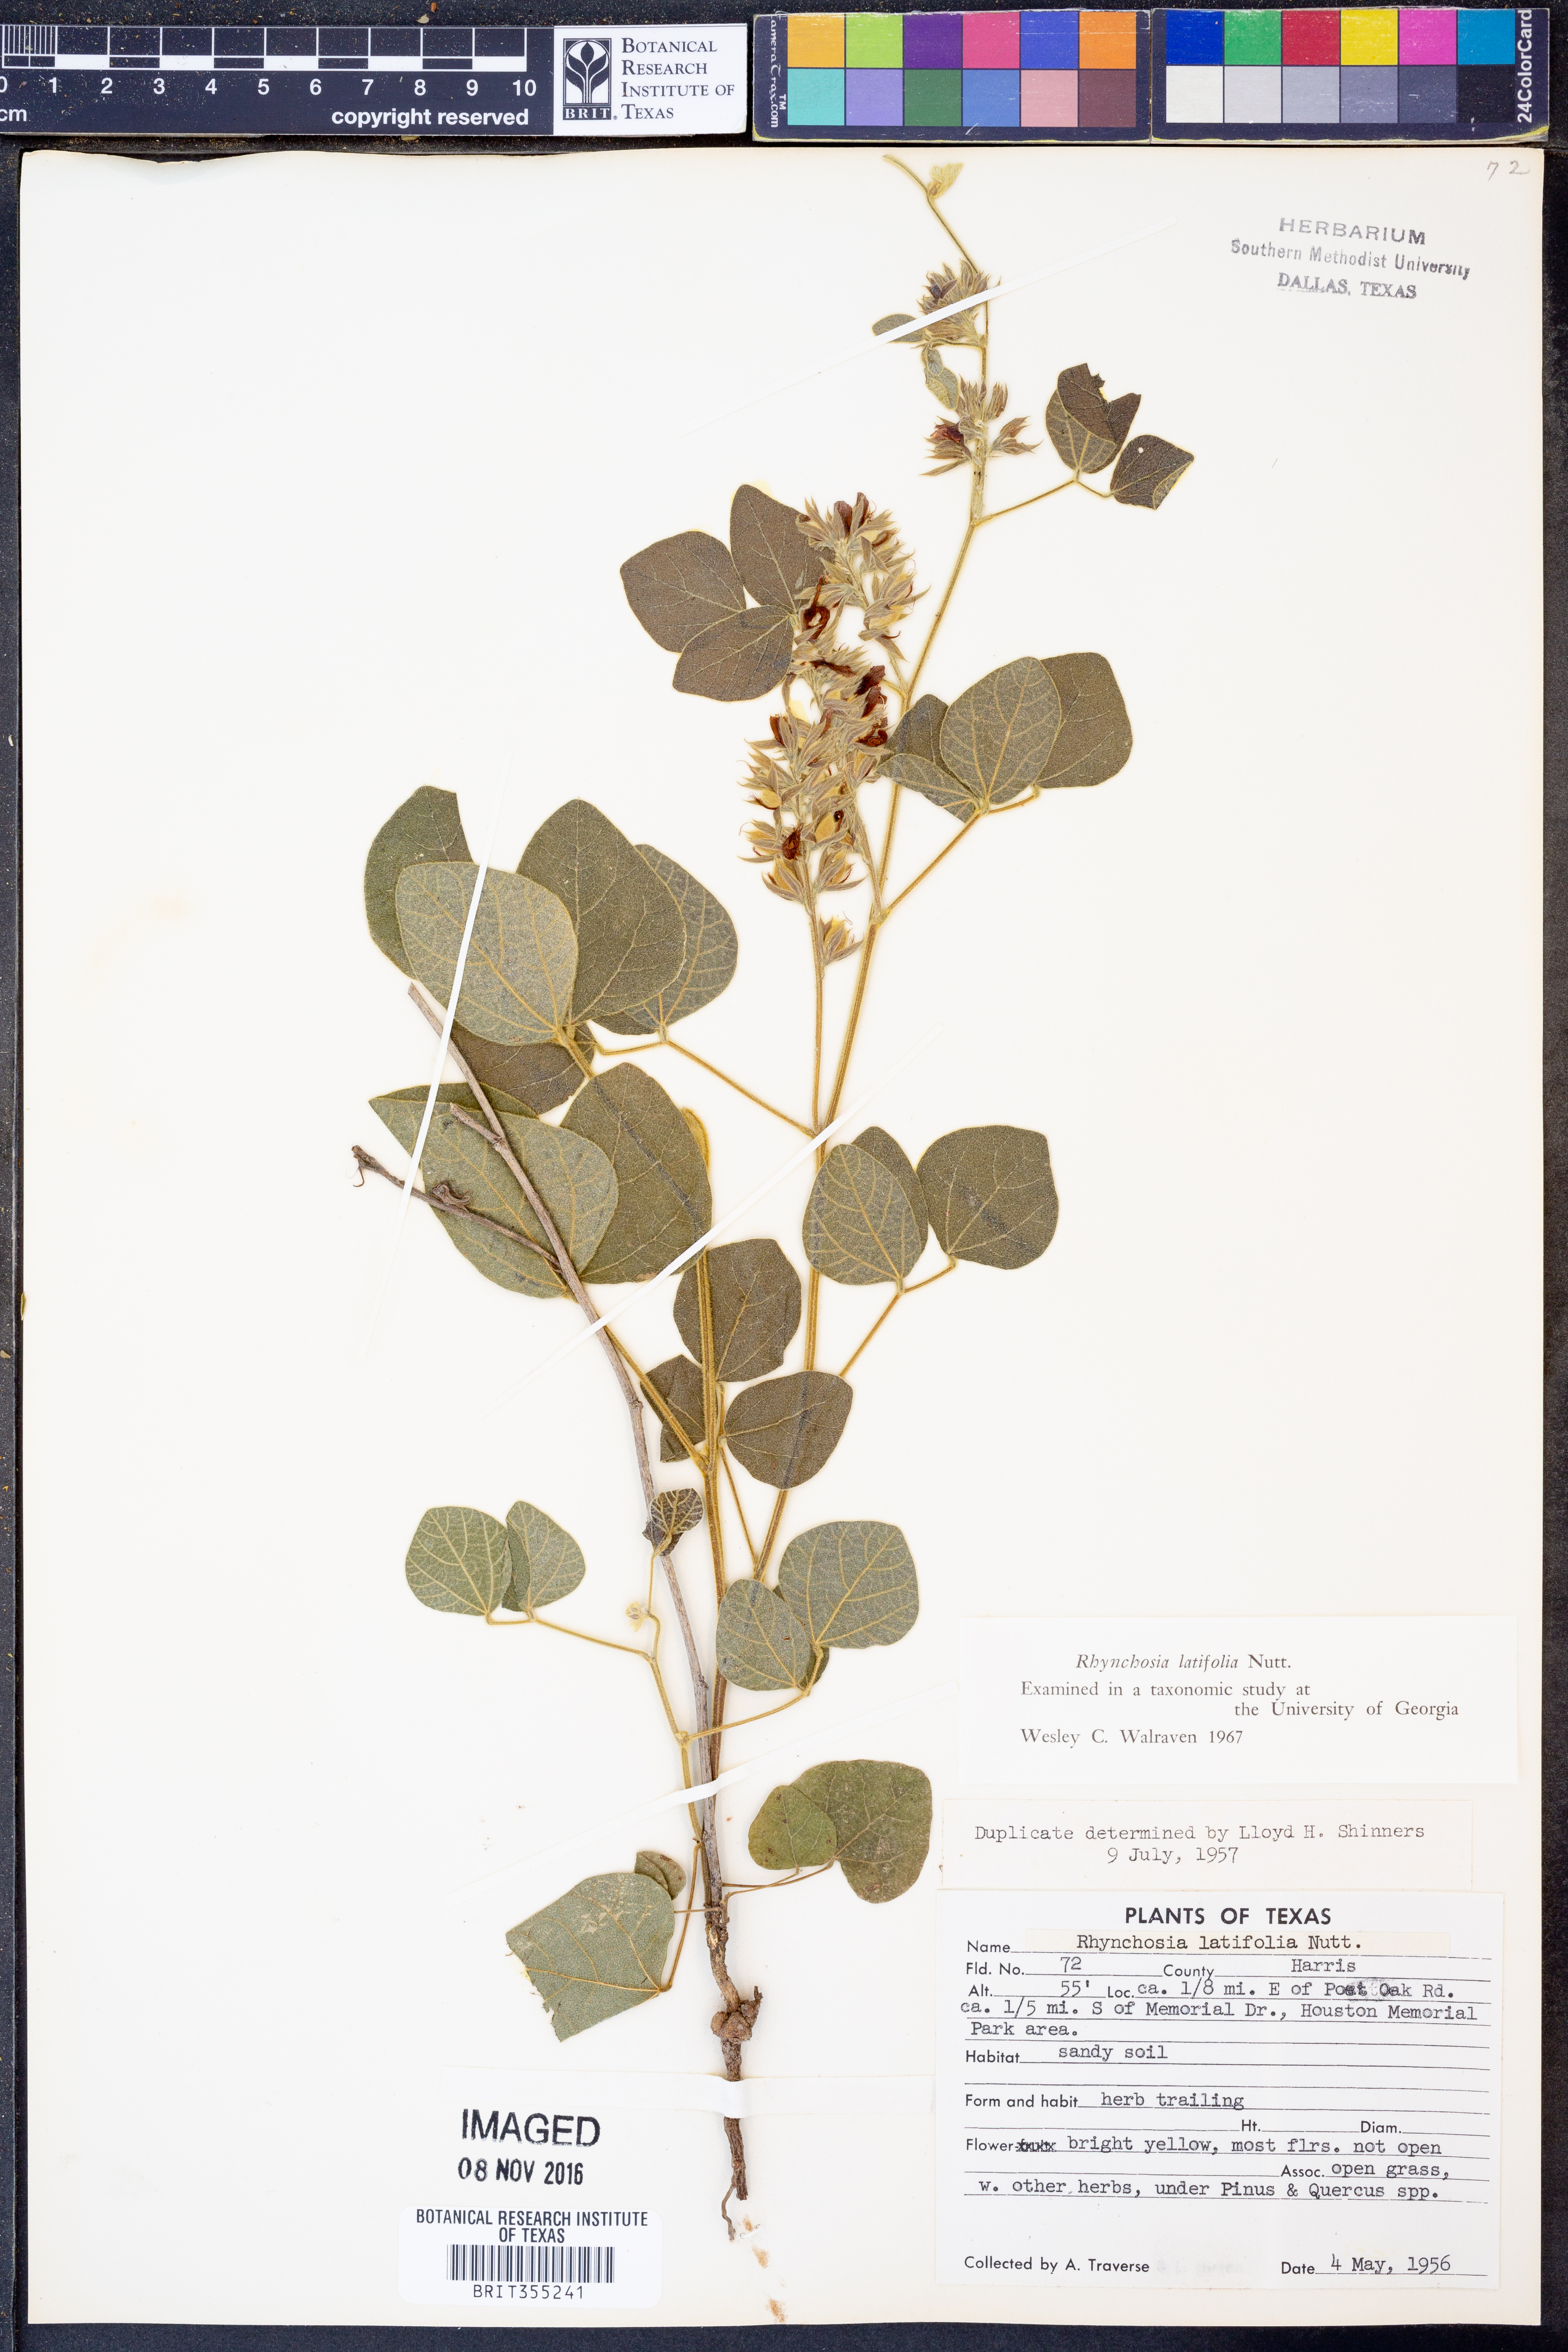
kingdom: Plantae
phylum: Tracheophyta
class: Magnoliopsida
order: Fabales
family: Fabaceae
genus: Rhynchosia
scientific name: Rhynchosia latifolia
